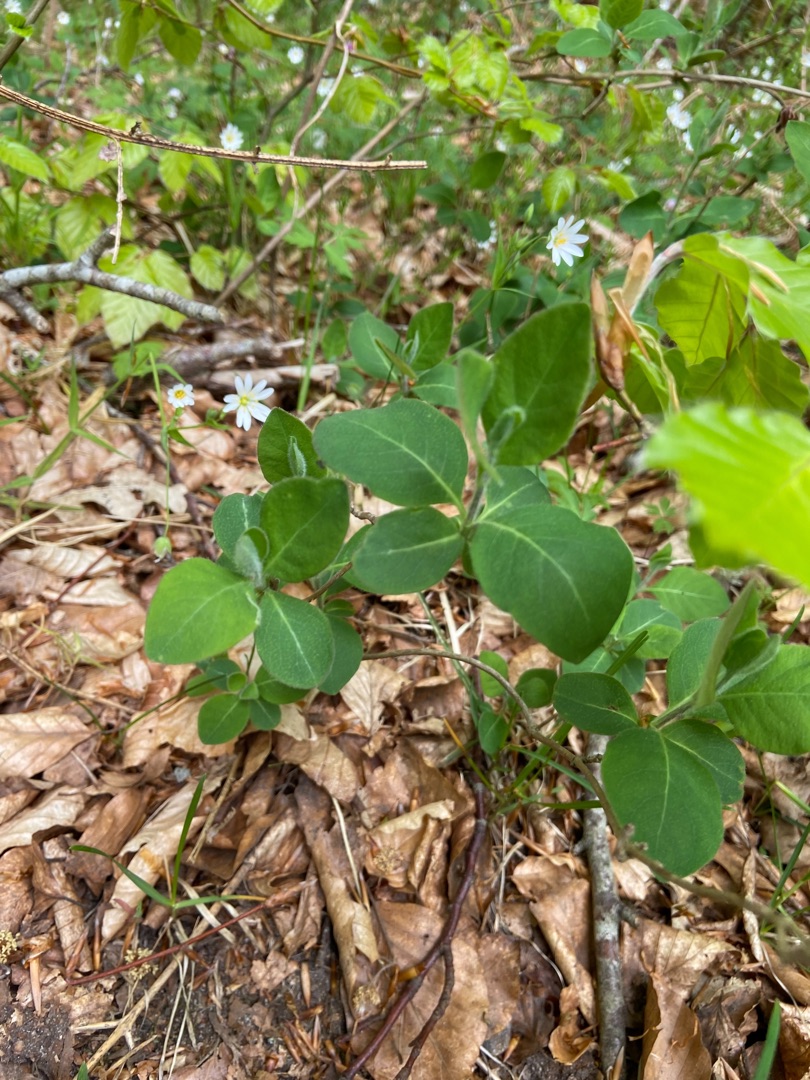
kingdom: Plantae
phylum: Tracheophyta
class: Magnoliopsida
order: Dipsacales
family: Caprifoliaceae
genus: Lonicera
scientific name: Lonicera periclymenum
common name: Almindelig gedeblad
